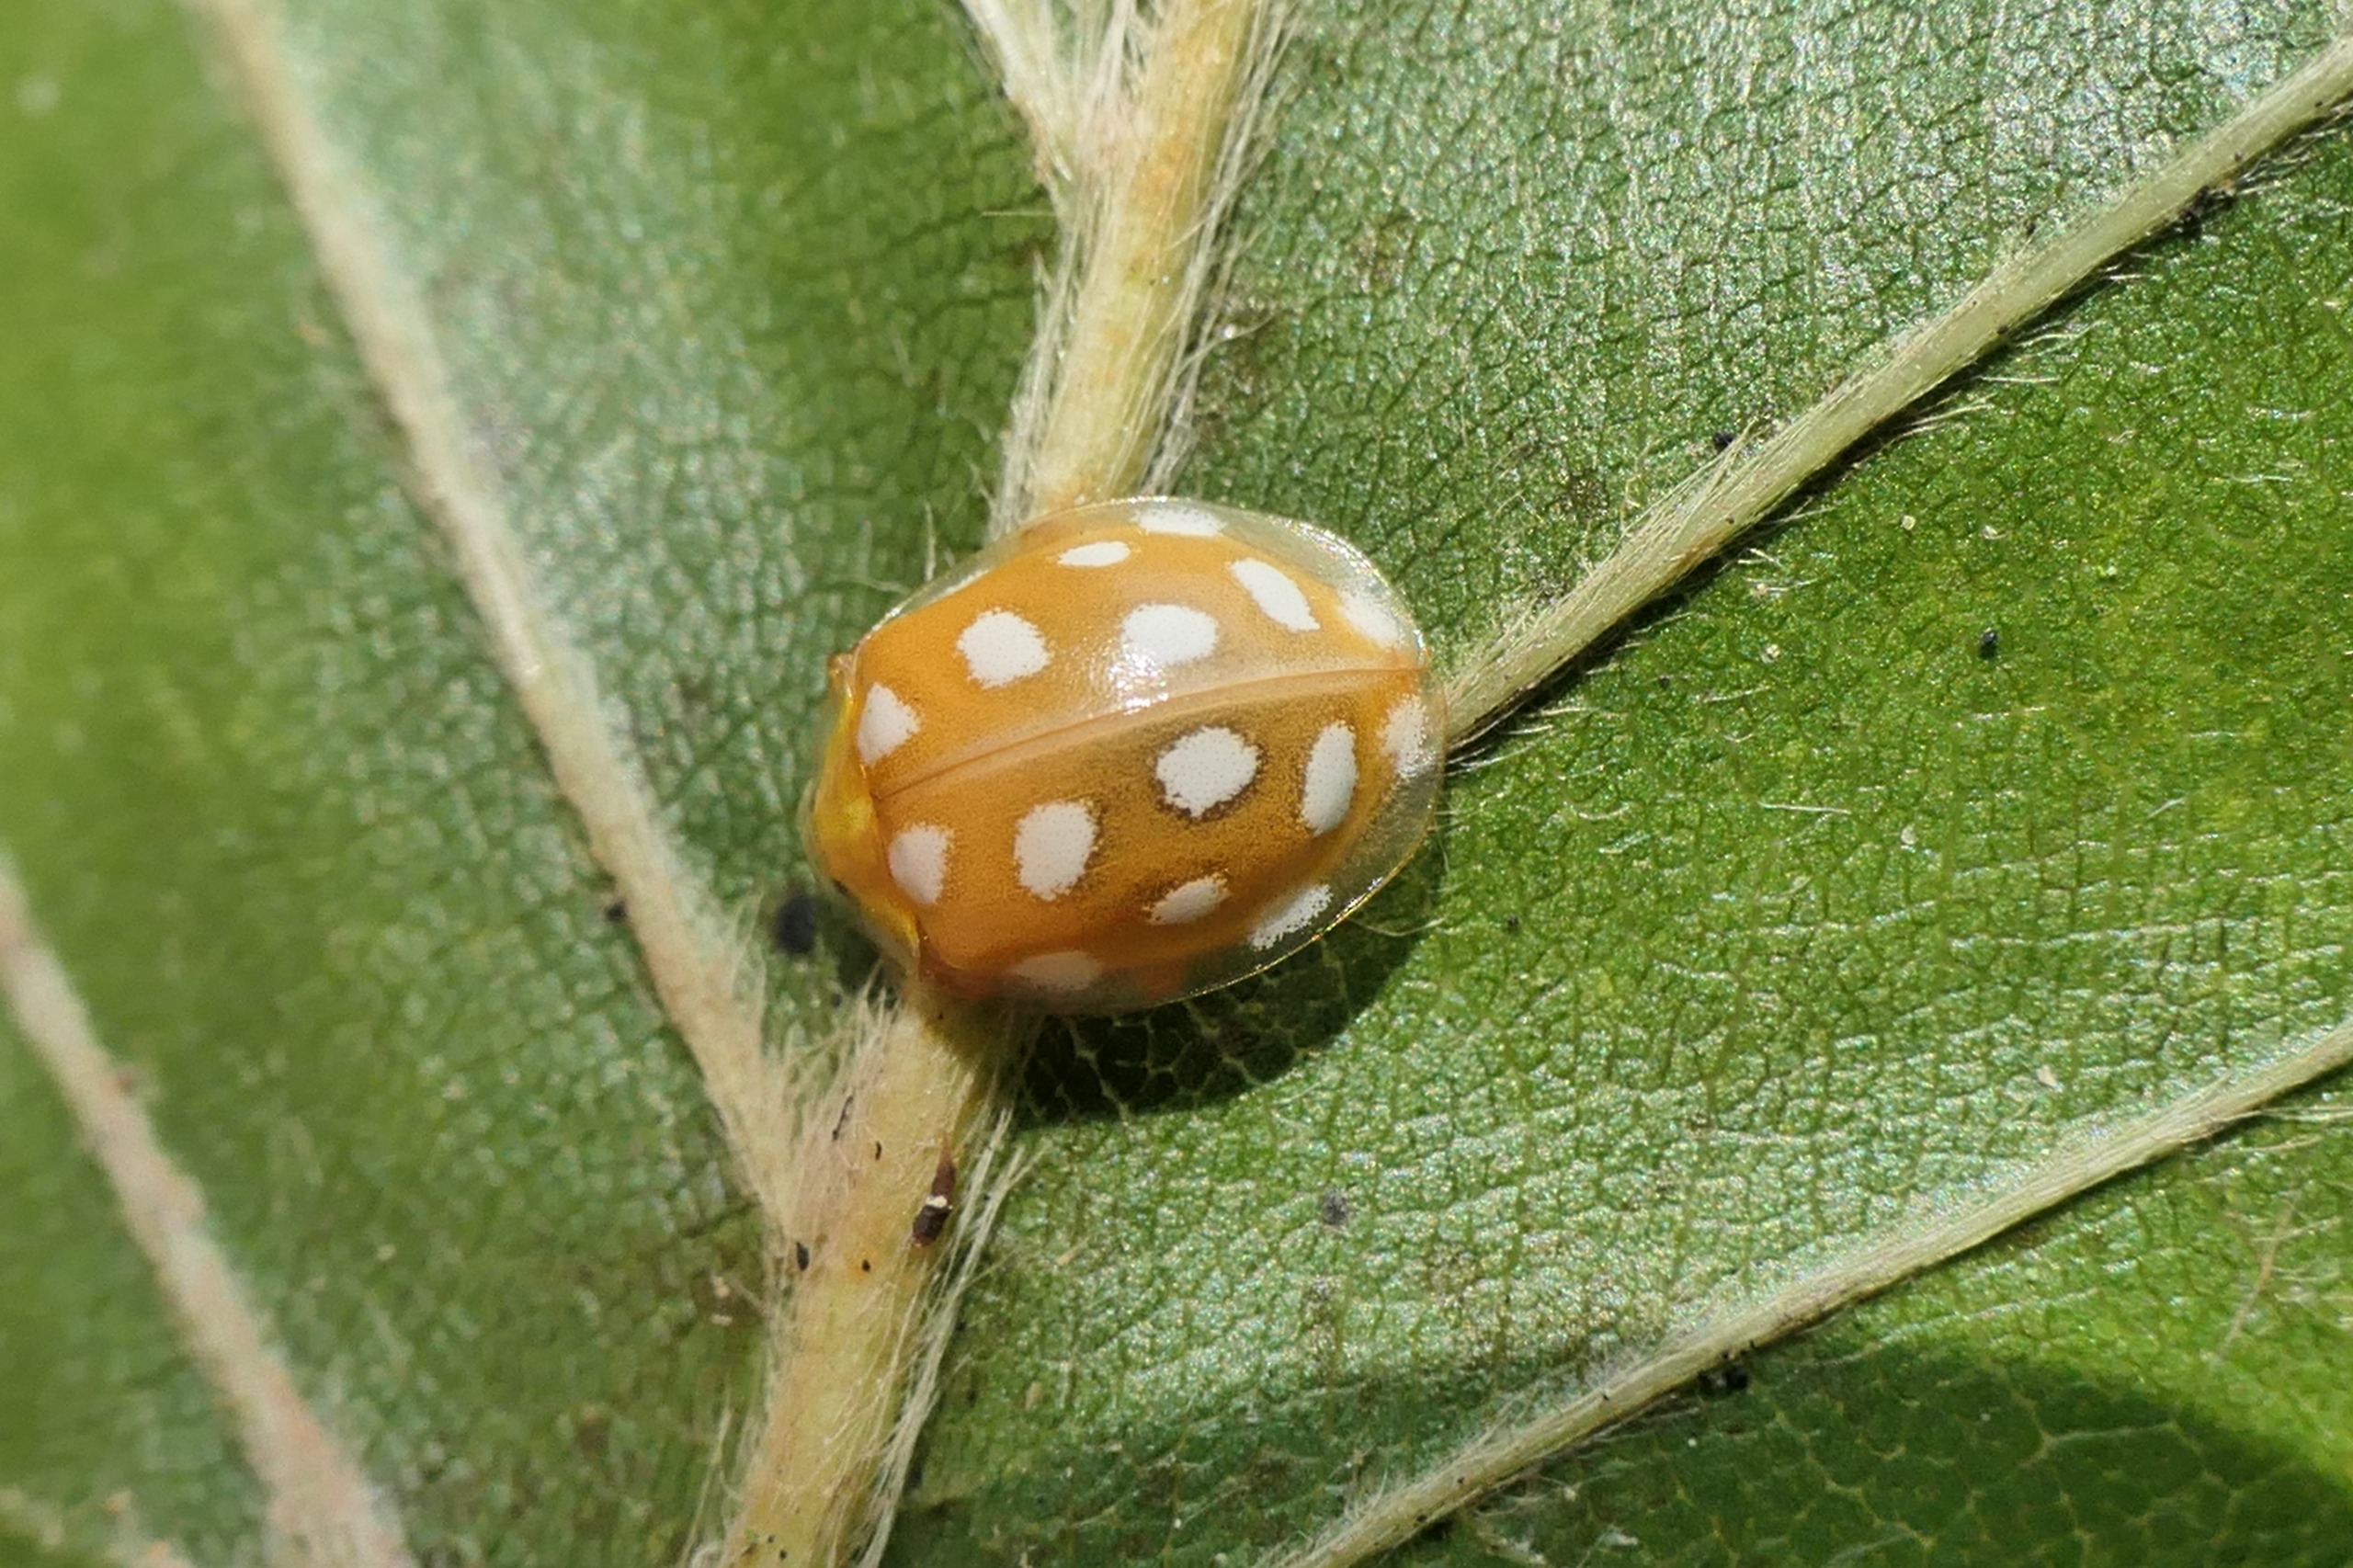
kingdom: Animalia
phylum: Arthropoda
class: Insecta
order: Coleoptera
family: Coccinellidae
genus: Halyzia
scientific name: Halyzia sedecimguttata
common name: Sekstenplettet mariehøne
